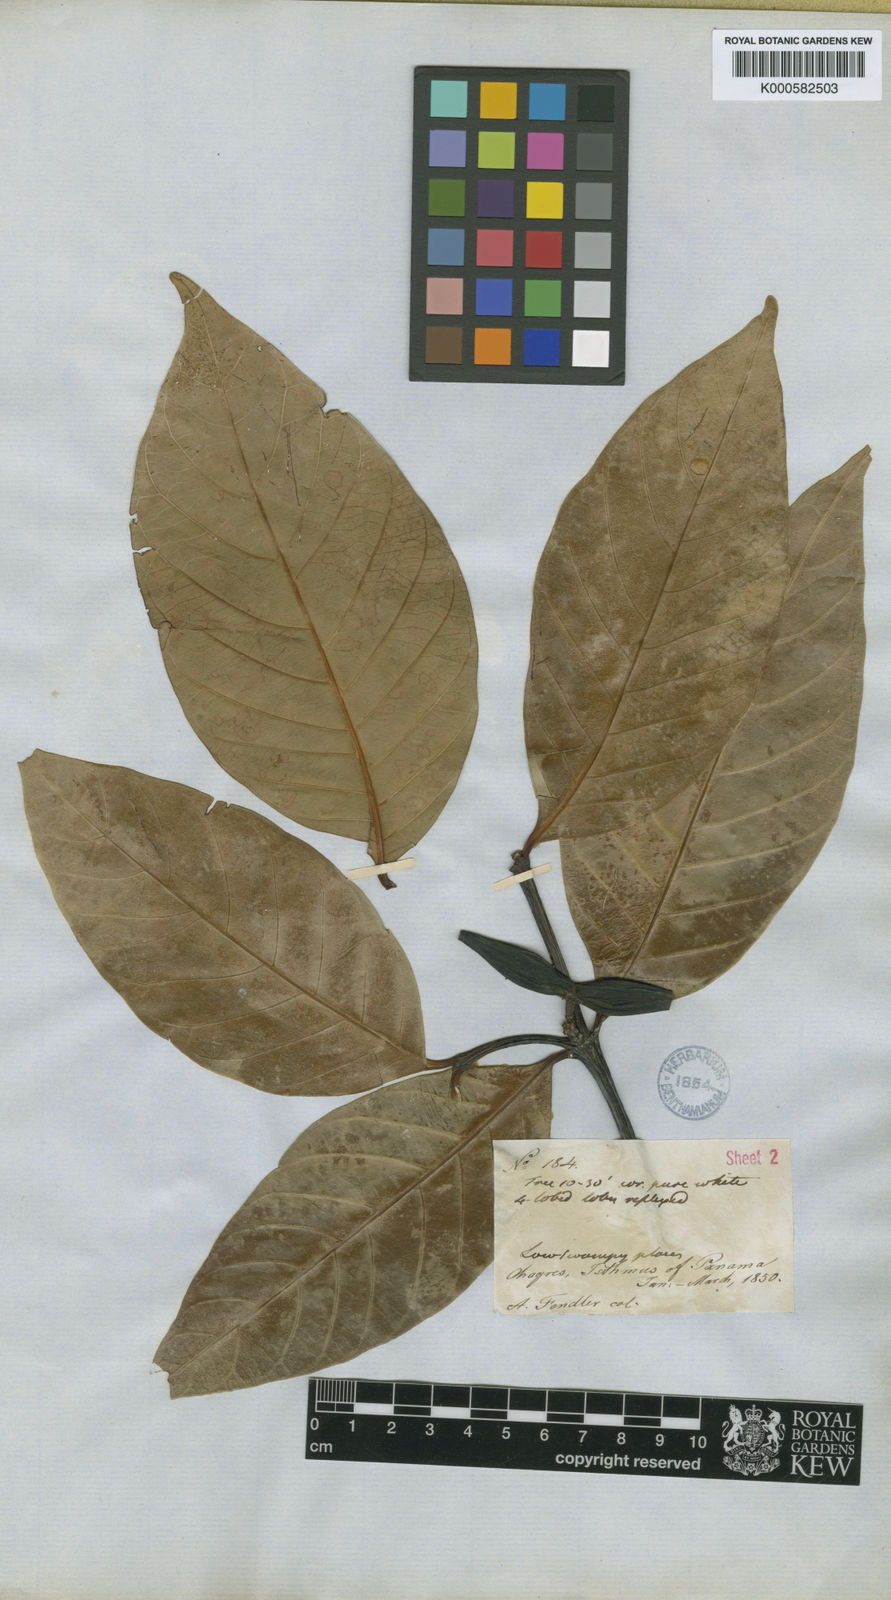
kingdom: Plantae
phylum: Tracheophyta
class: Magnoliopsida
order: Gentianales
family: Apocynaceae
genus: Malouetia
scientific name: Malouetia
